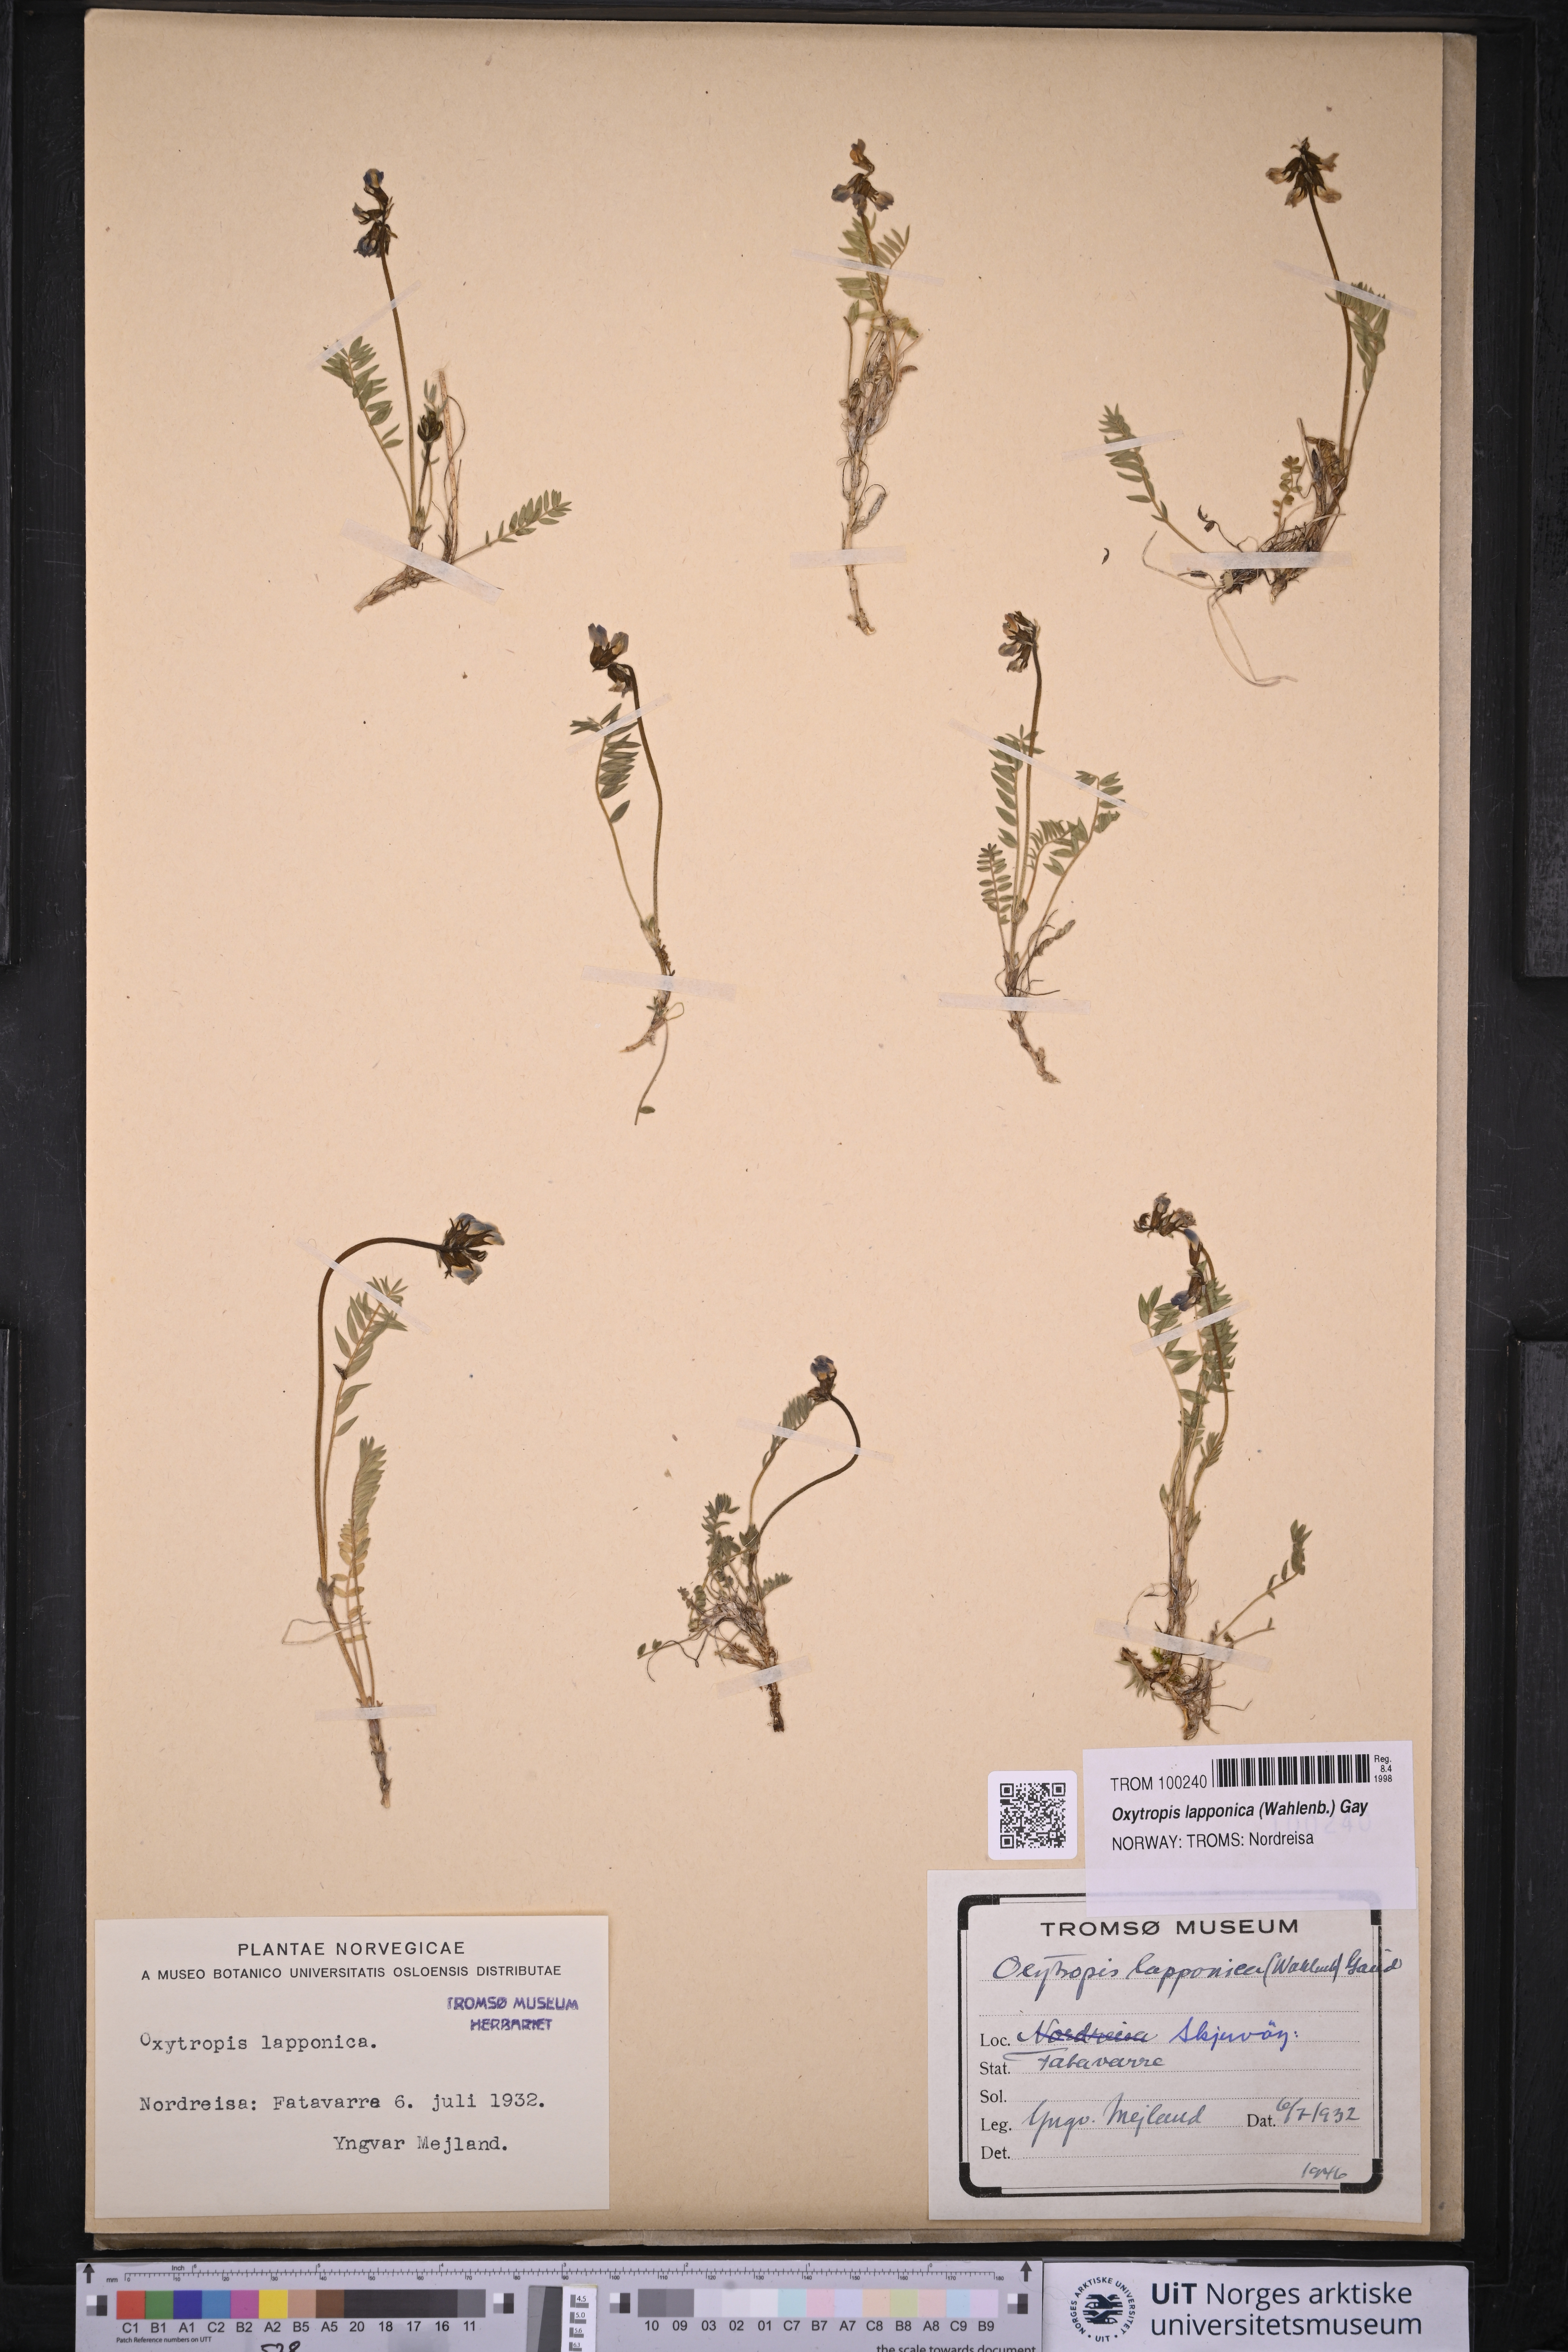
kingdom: Plantae
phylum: Tracheophyta
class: Magnoliopsida
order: Fabales
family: Fabaceae
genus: Oxytropis
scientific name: Oxytropis lapponica
